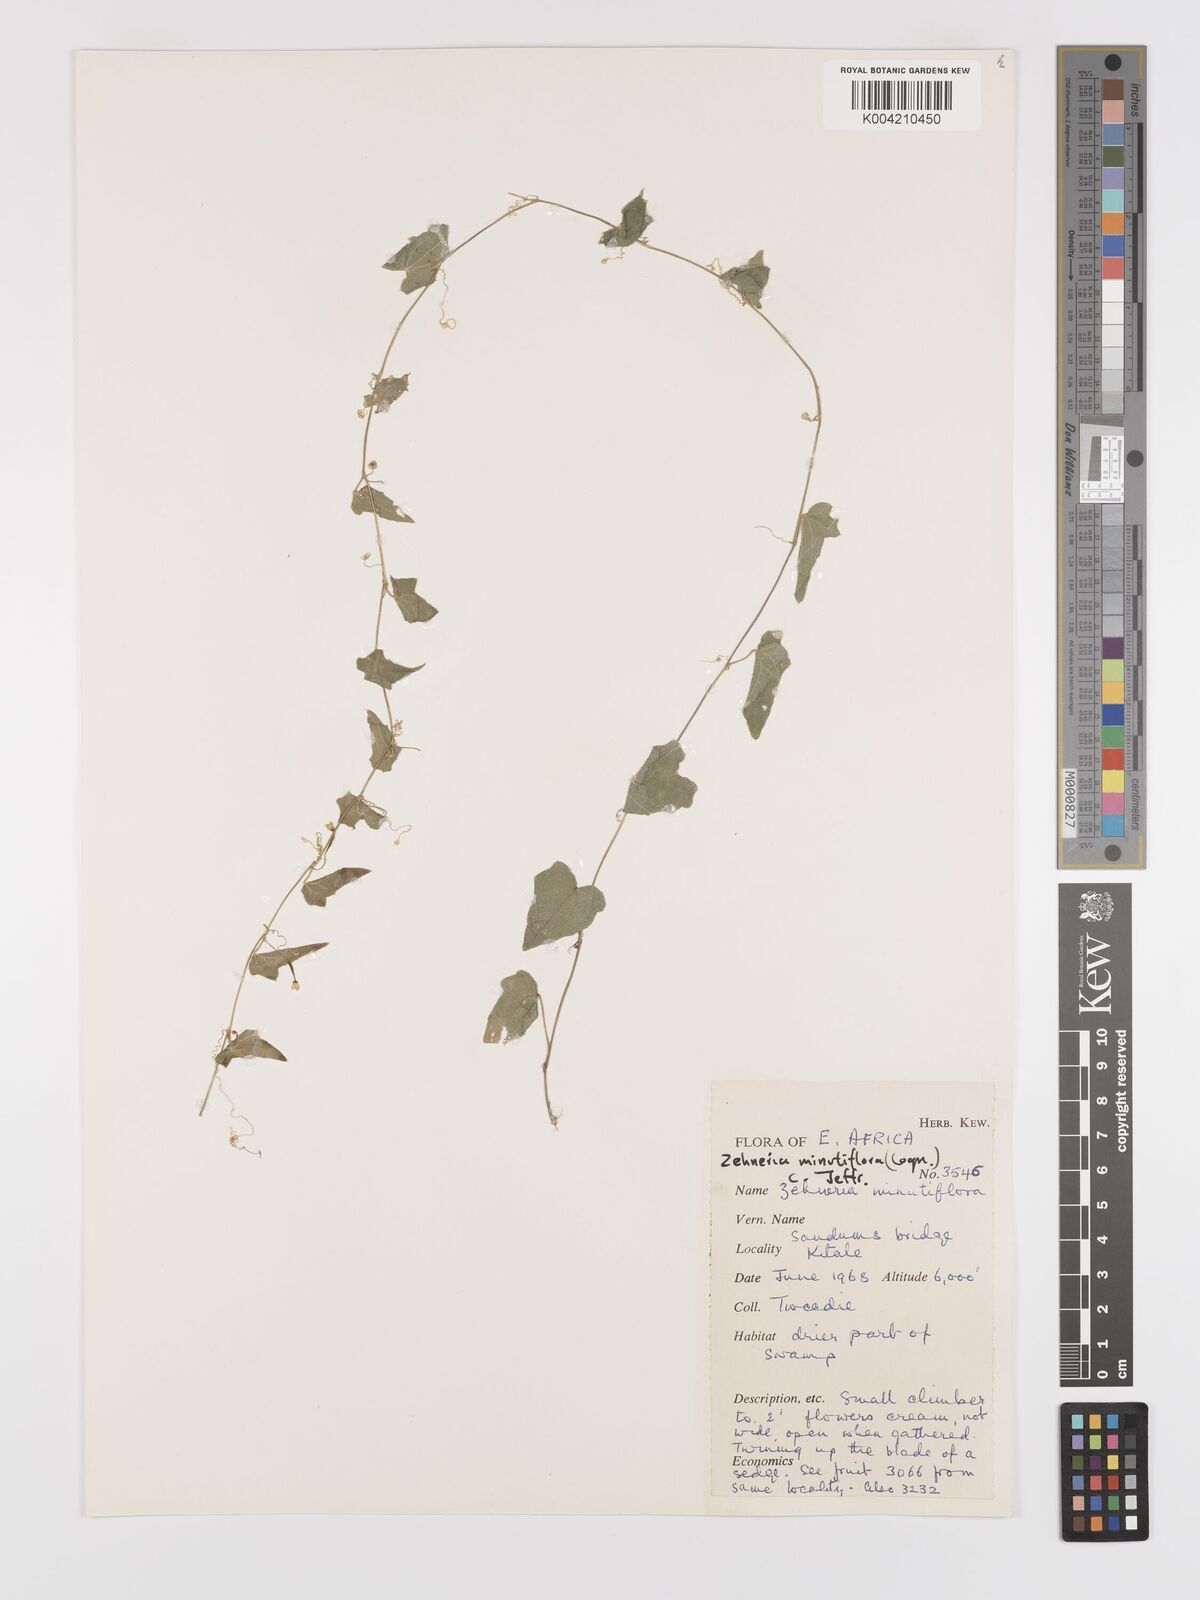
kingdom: Plantae
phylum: Tracheophyta
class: Magnoliopsida
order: Cucurbitales
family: Cucurbitaceae
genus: Zehneria
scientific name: Zehneria minutiflora
